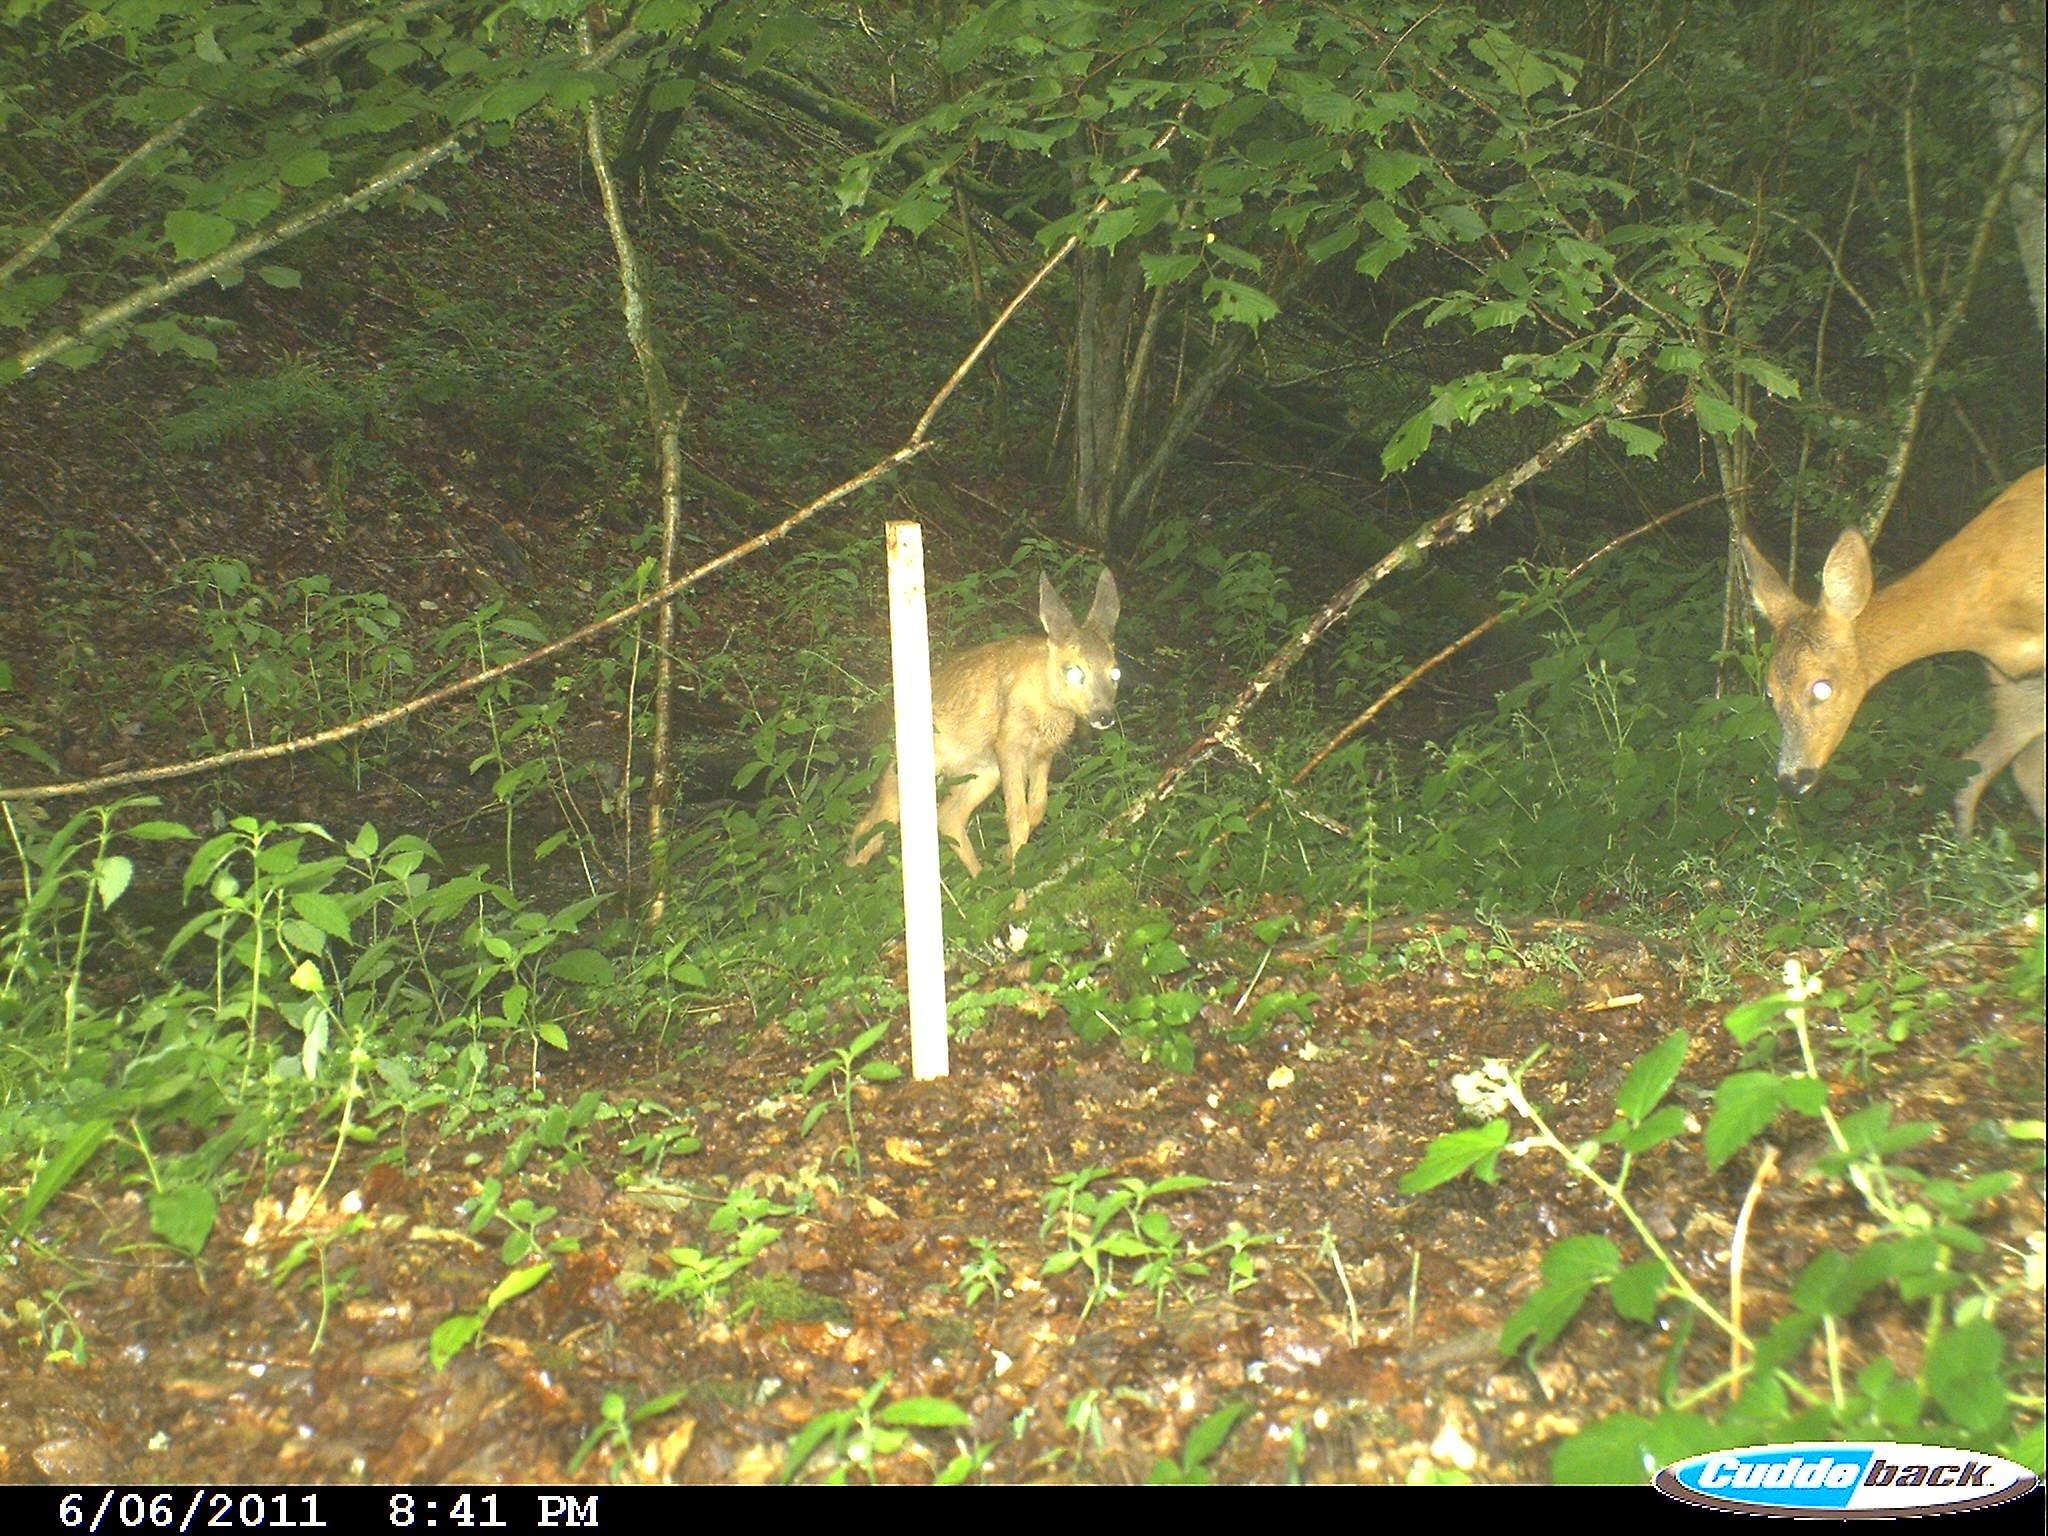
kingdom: Animalia
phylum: Chordata
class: Mammalia
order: Artiodactyla
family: Cervidae
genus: Capreolus
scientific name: Capreolus capreolus
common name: Western roe deer
